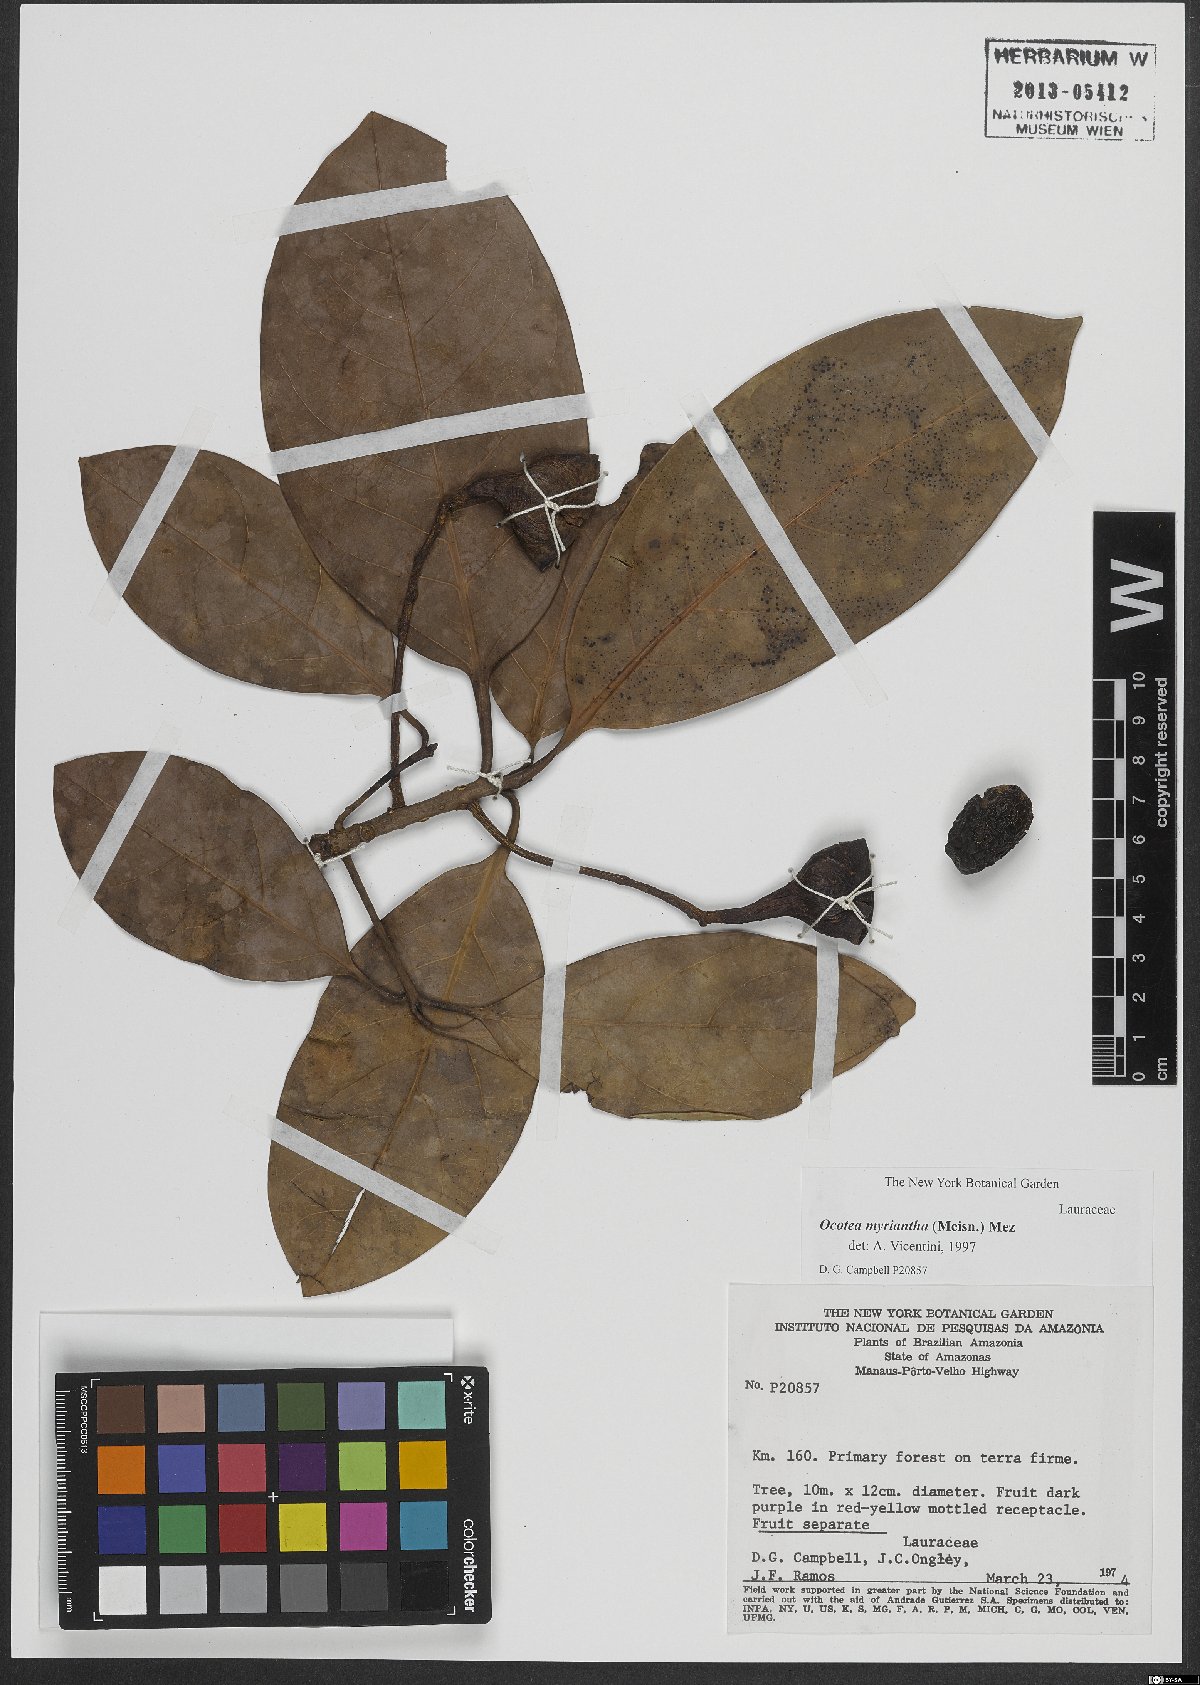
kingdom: Plantae
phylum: Tracheophyta
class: Magnoliopsida
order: Laurales
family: Lauraceae
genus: Ocotea
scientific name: Ocotea myriantha
